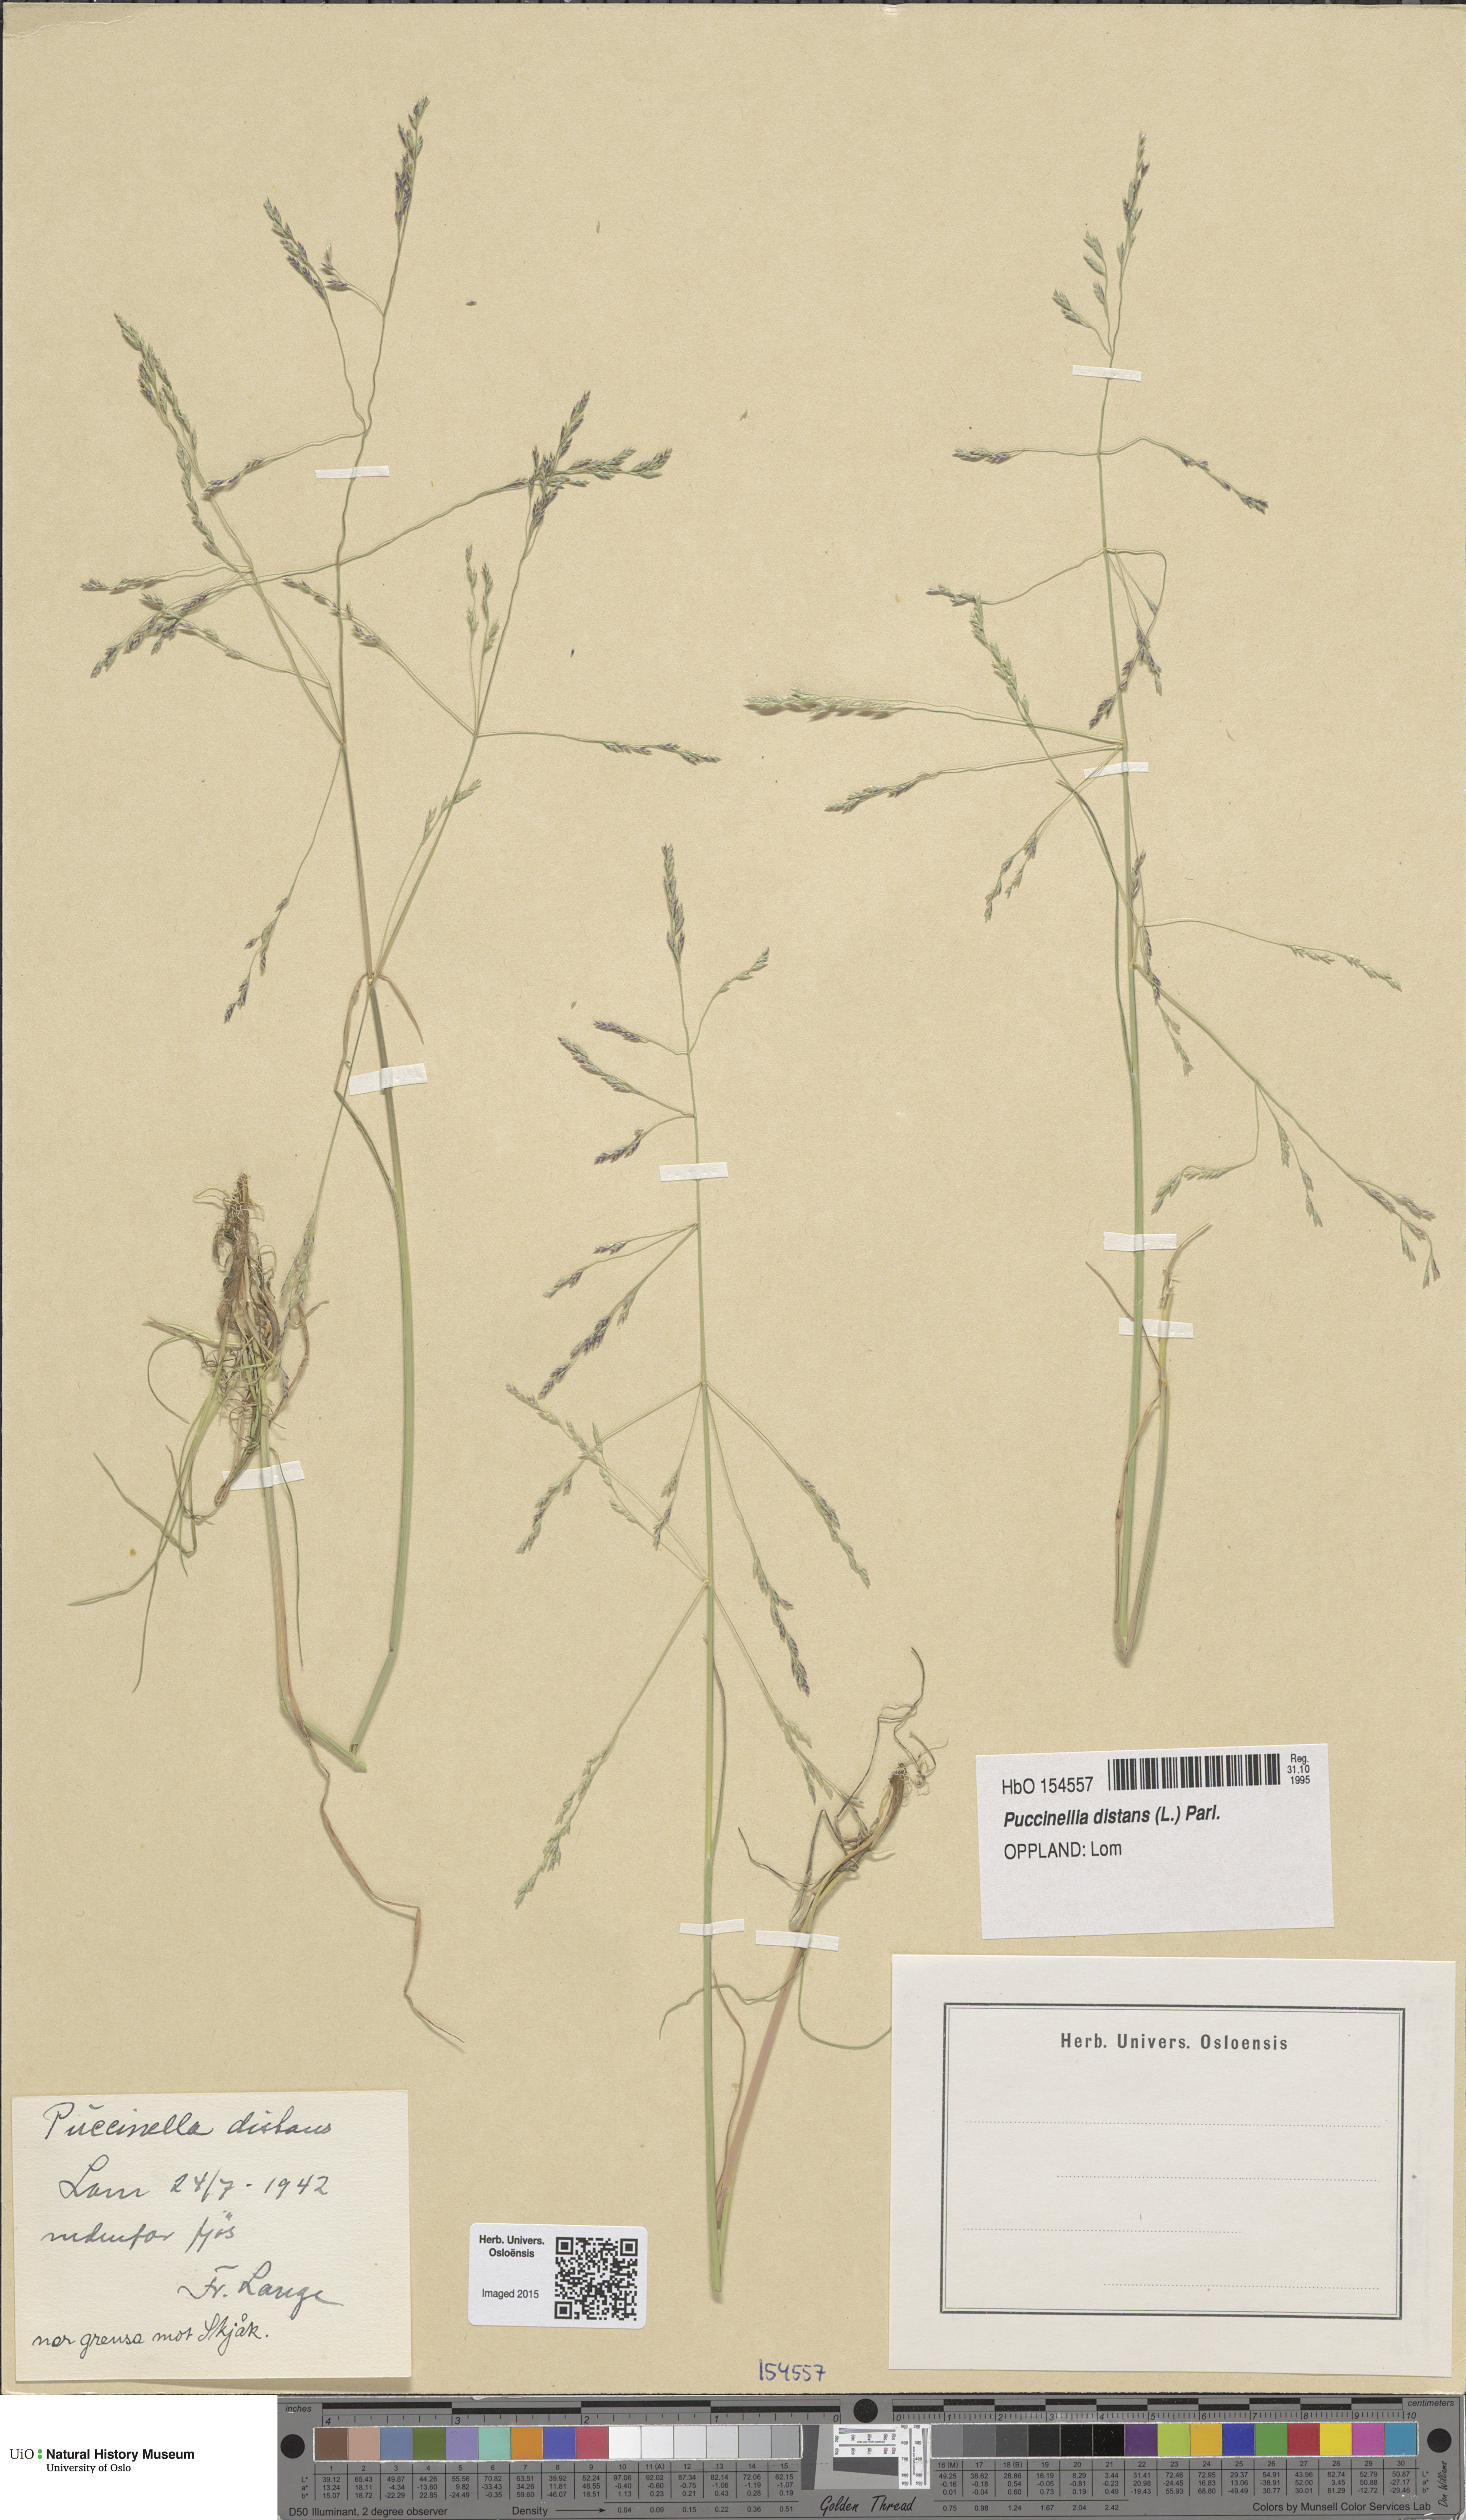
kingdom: Plantae
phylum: Tracheophyta
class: Liliopsida
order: Poales
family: Poaceae
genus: Puccinellia
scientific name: Puccinellia distans
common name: Weeping alkaligrass
